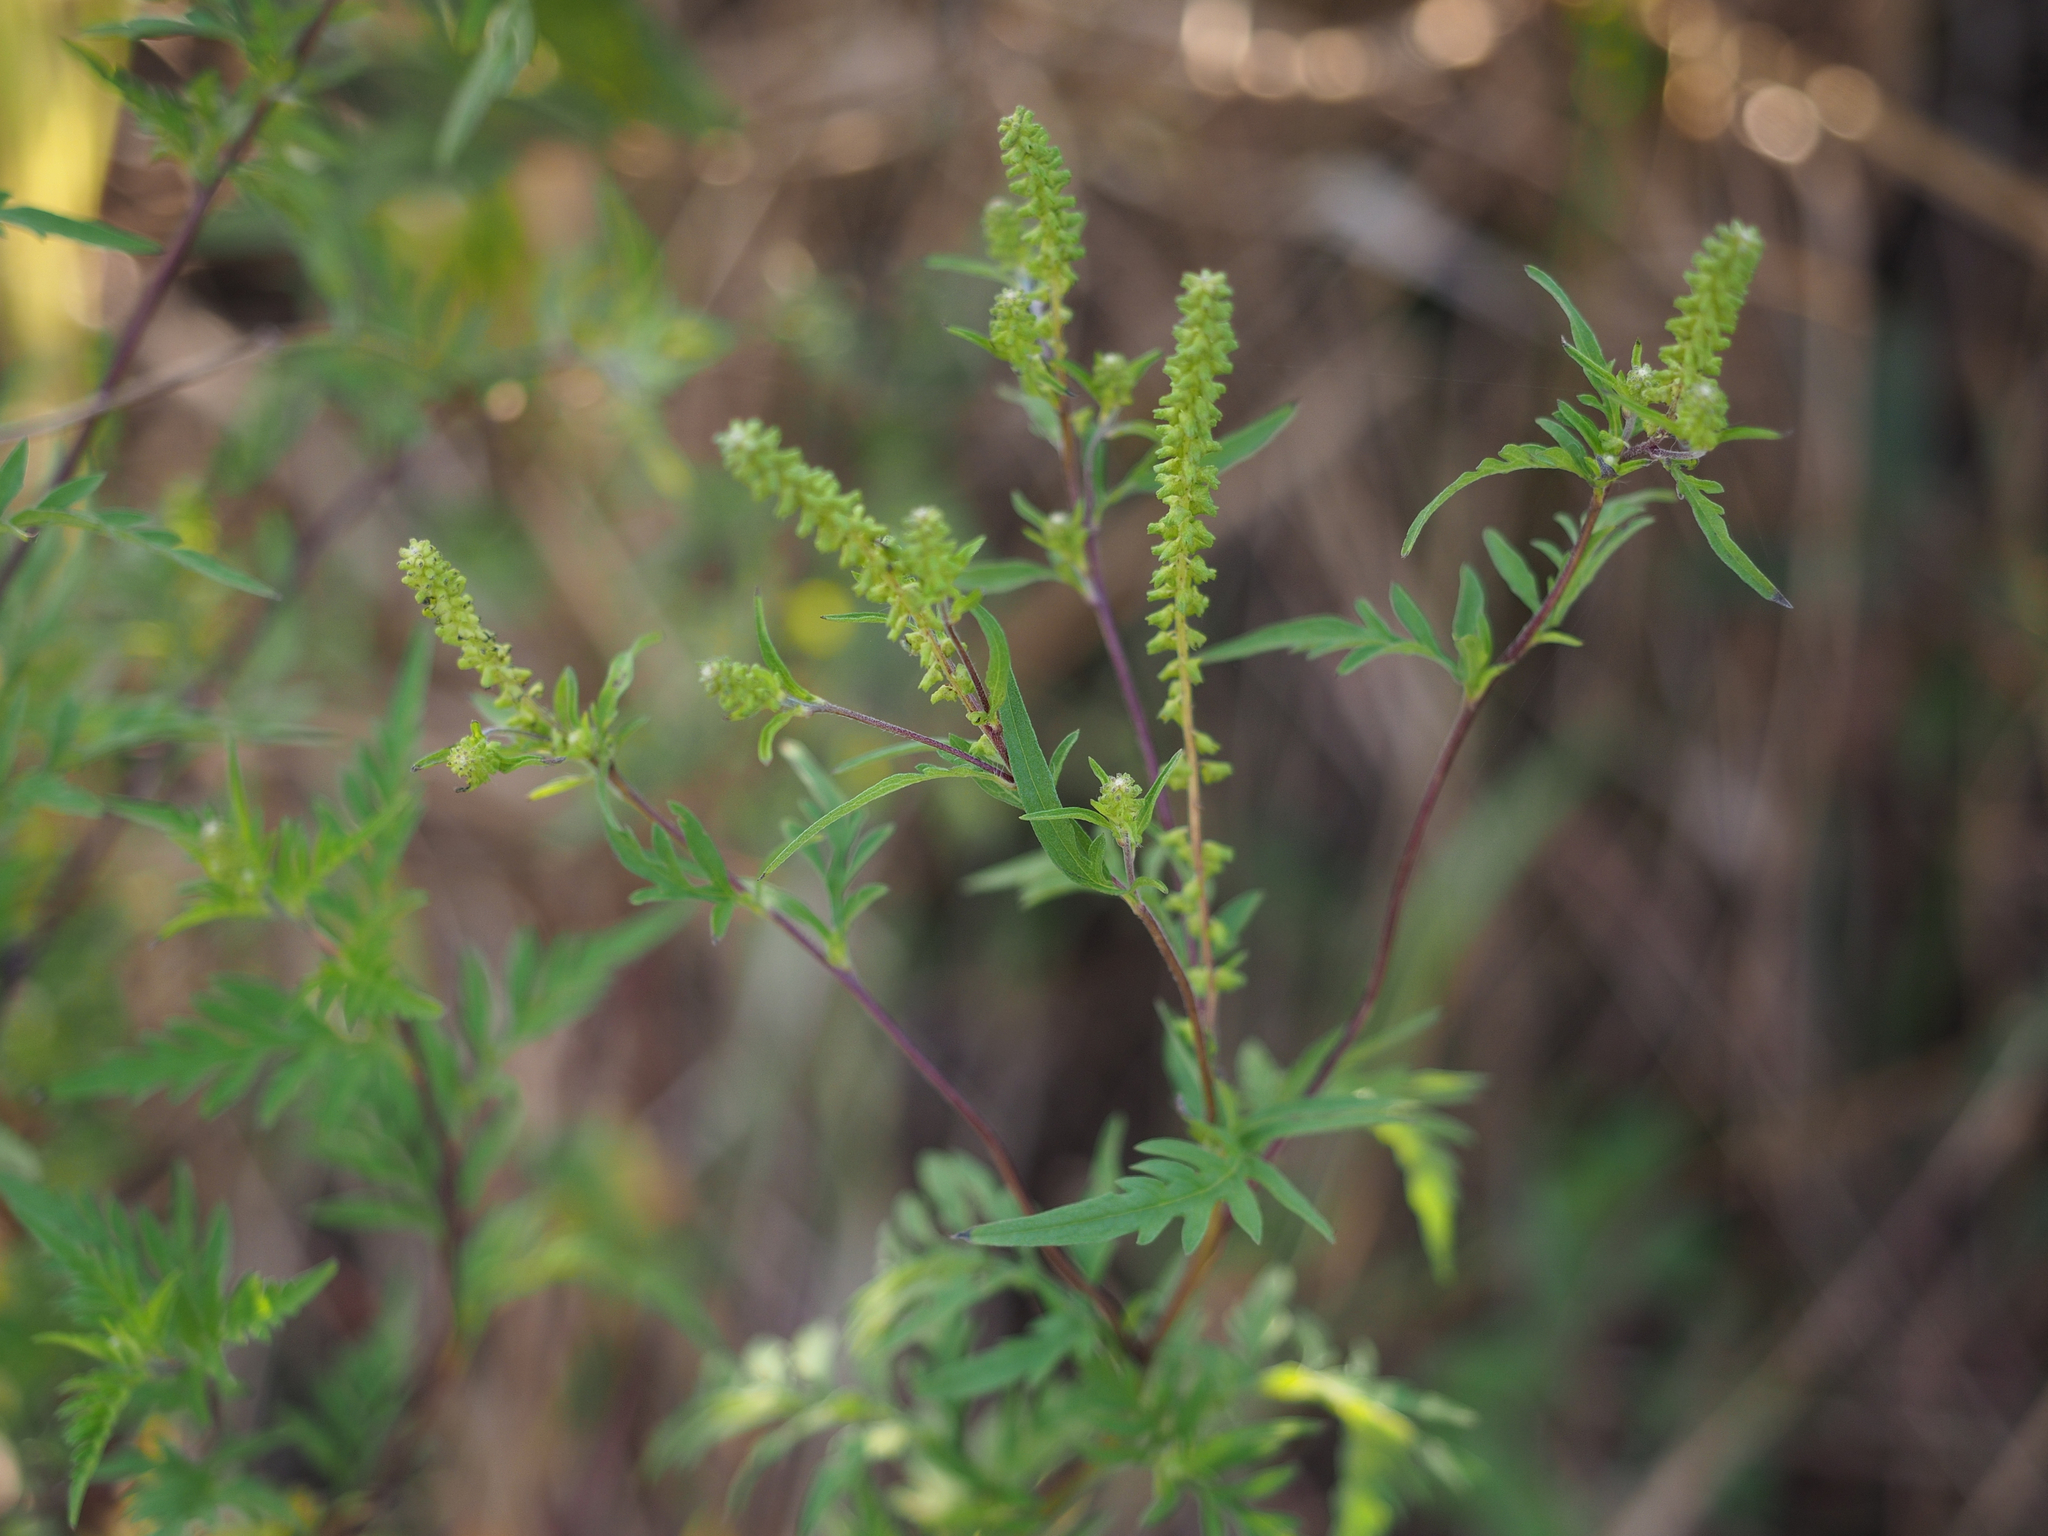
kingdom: Plantae
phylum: Tracheophyta
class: Magnoliopsida
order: Asterales
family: Asteraceae
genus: Ambrosia
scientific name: Ambrosia psilostachya
